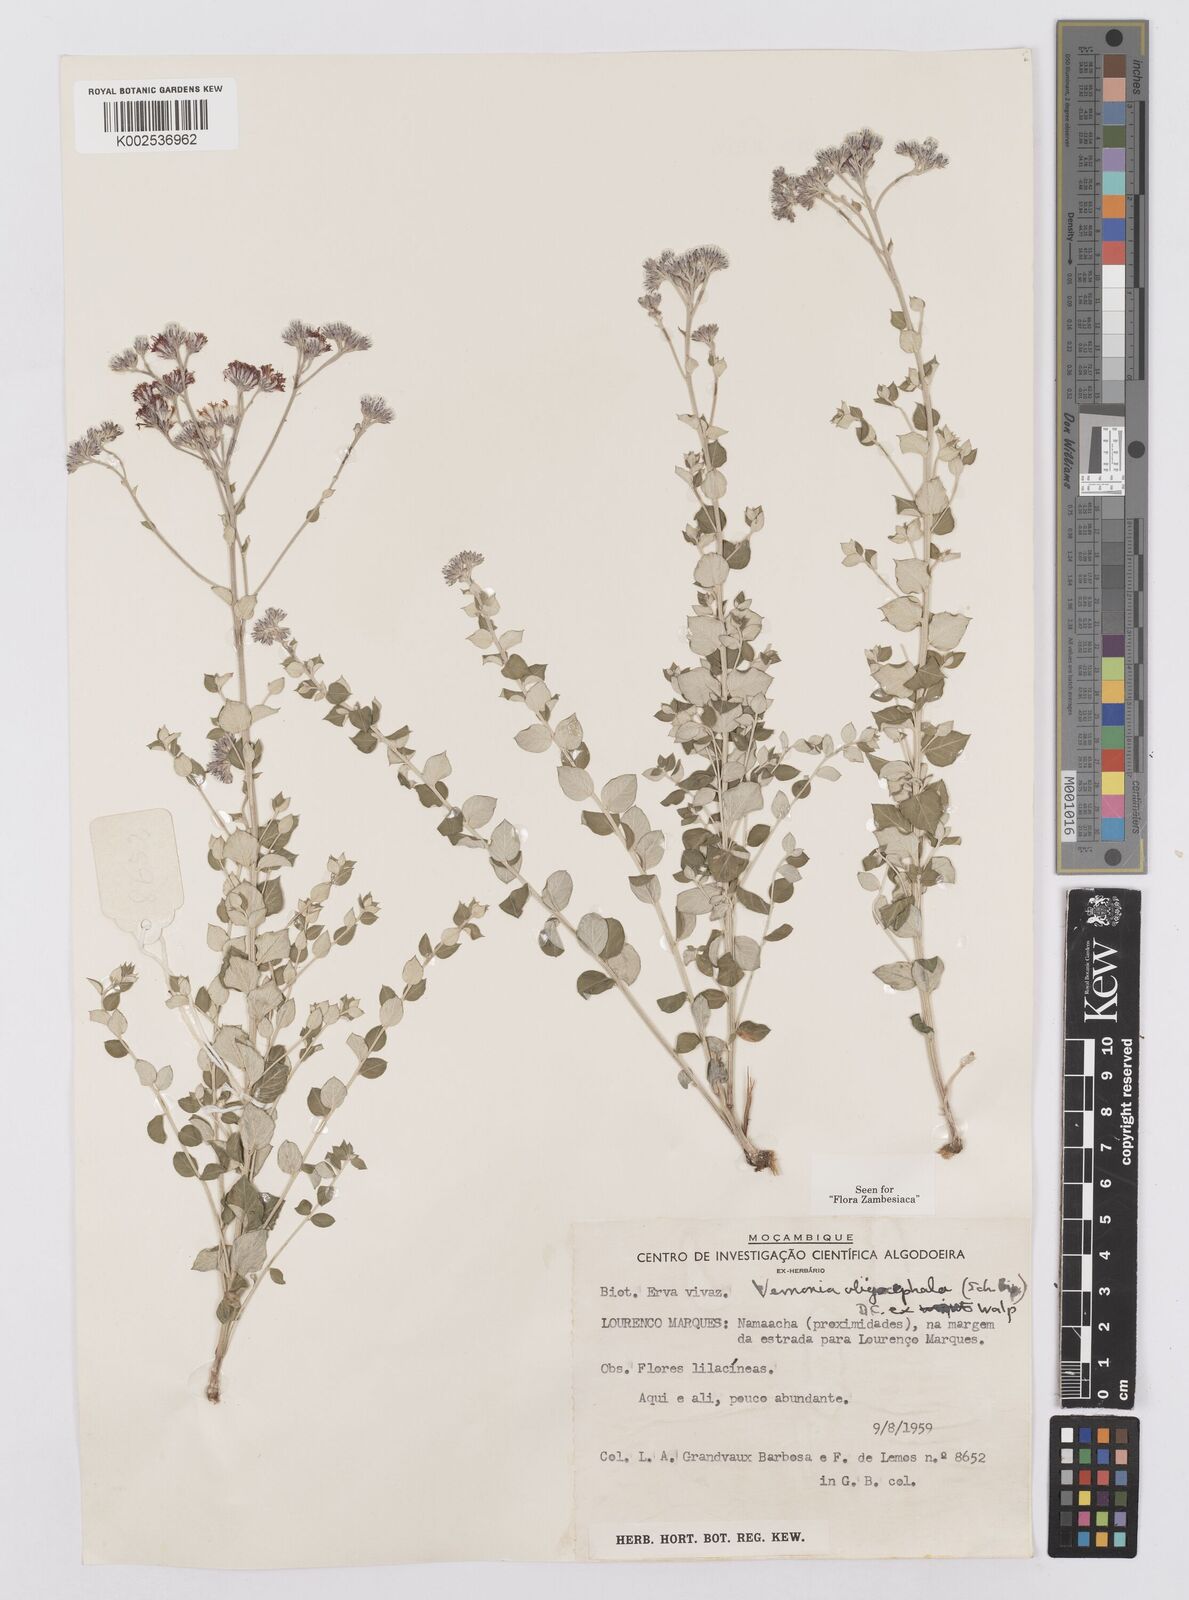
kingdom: Plantae
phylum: Tracheophyta
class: Magnoliopsida
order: Asterales
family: Asteraceae
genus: Hilliardiella
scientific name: Hilliardiella oligocephala
